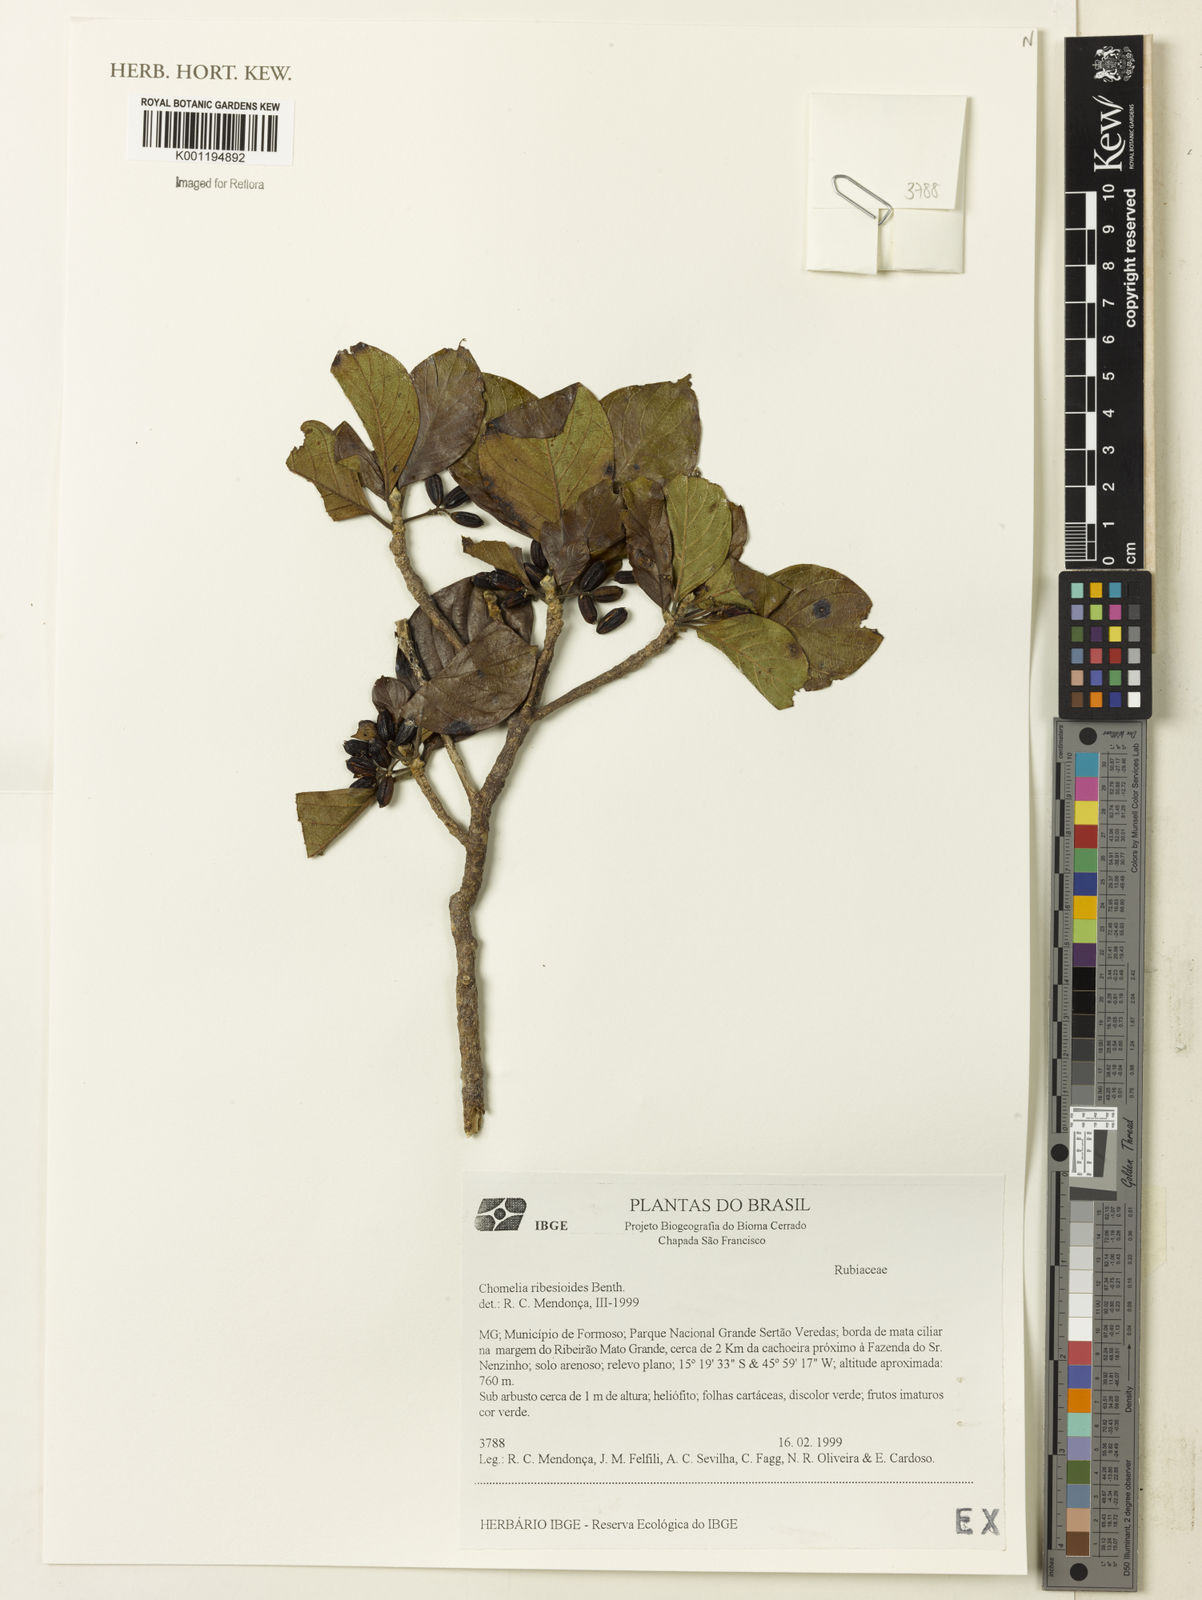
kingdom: Plantae
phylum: Tracheophyta
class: Magnoliopsida
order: Gentianales
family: Rubiaceae
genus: Chomelia
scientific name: Chomelia ribesioides
